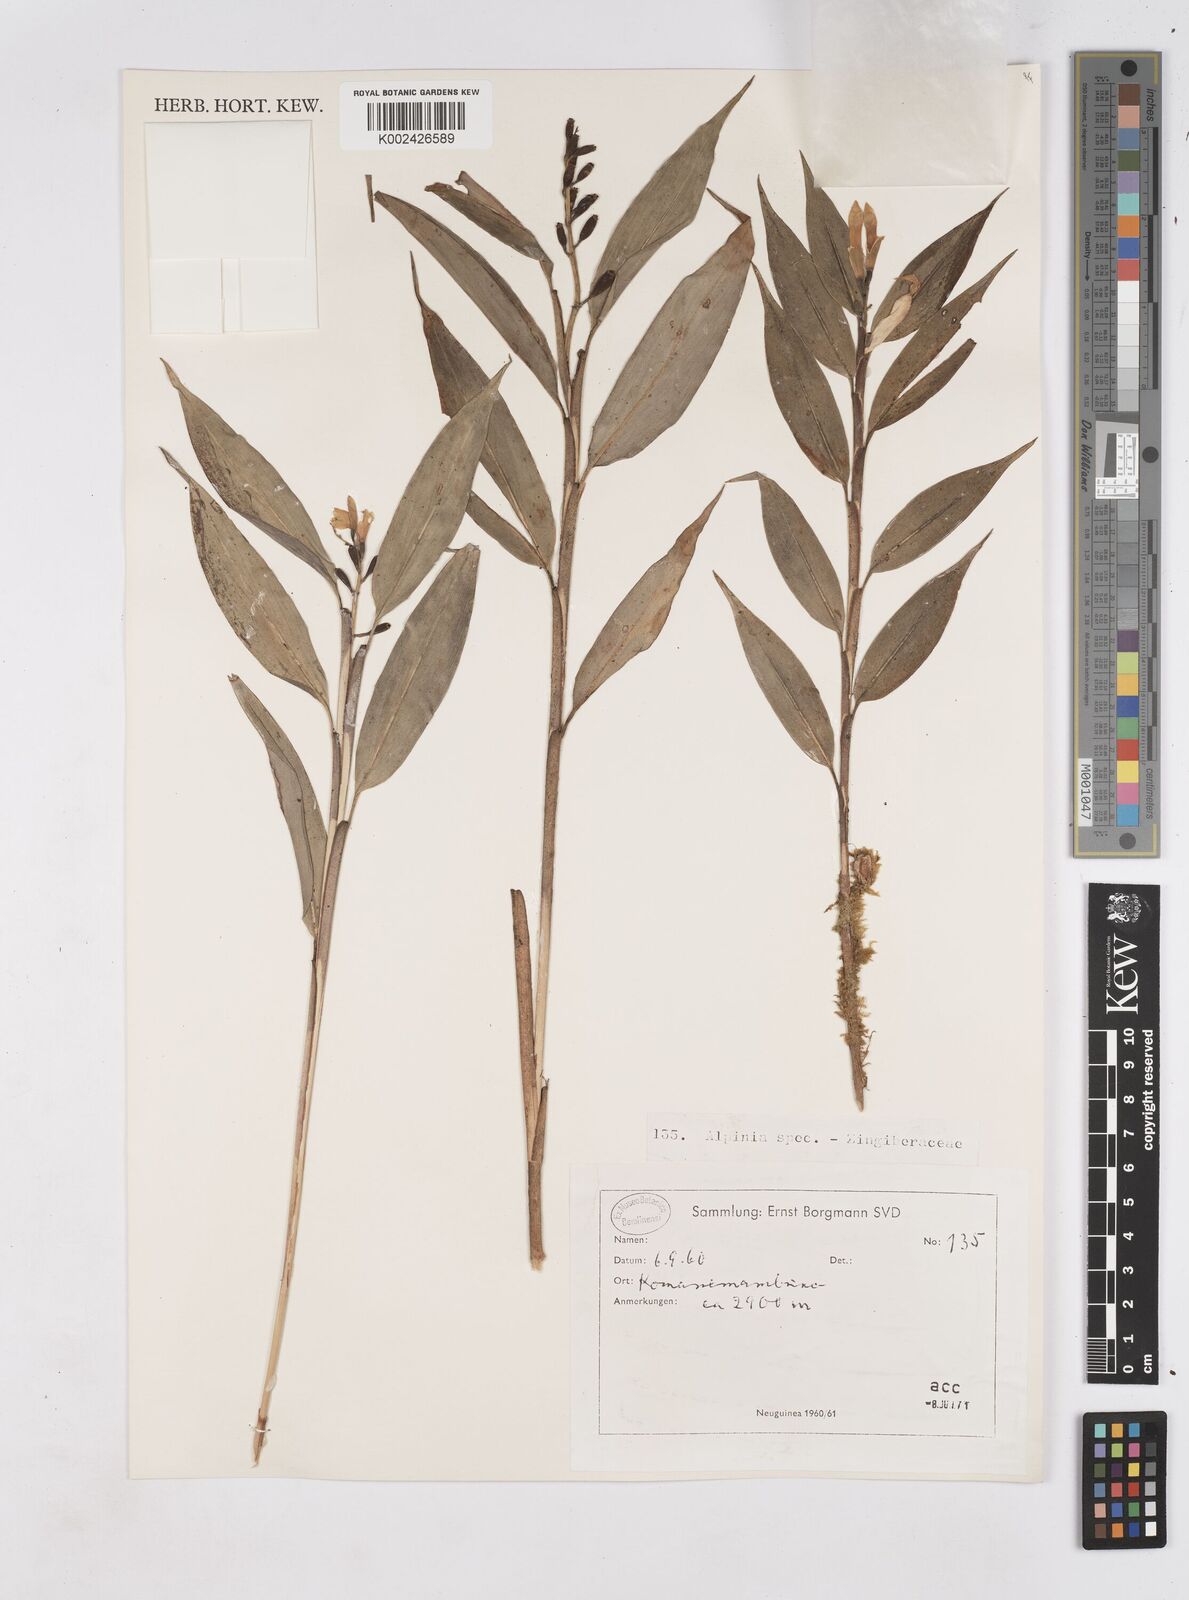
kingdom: Plantae
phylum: Tracheophyta
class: Liliopsida
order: Zingiberales
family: Zingiberaceae
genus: Riedelia
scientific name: Riedelia
